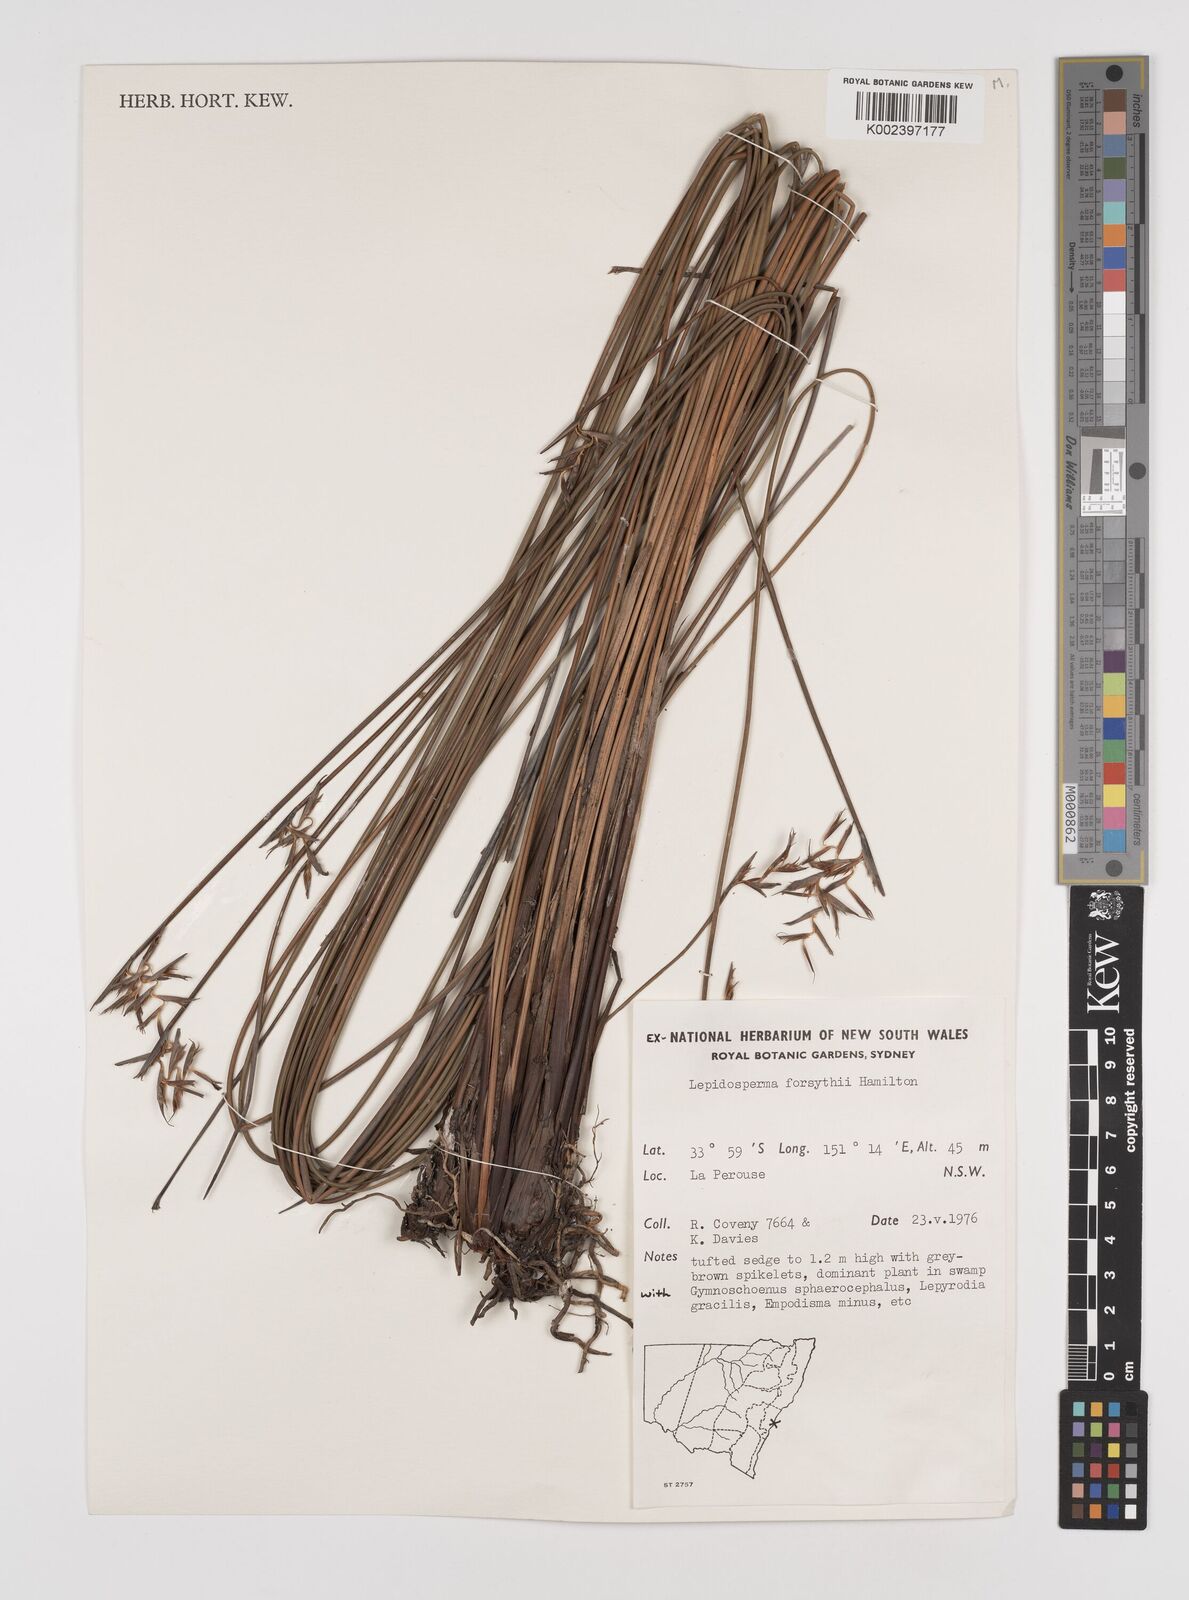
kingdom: Plantae
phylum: Tracheophyta
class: Liliopsida
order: Poales
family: Cyperaceae
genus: Lepidosperma
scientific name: Lepidosperma forsythii
